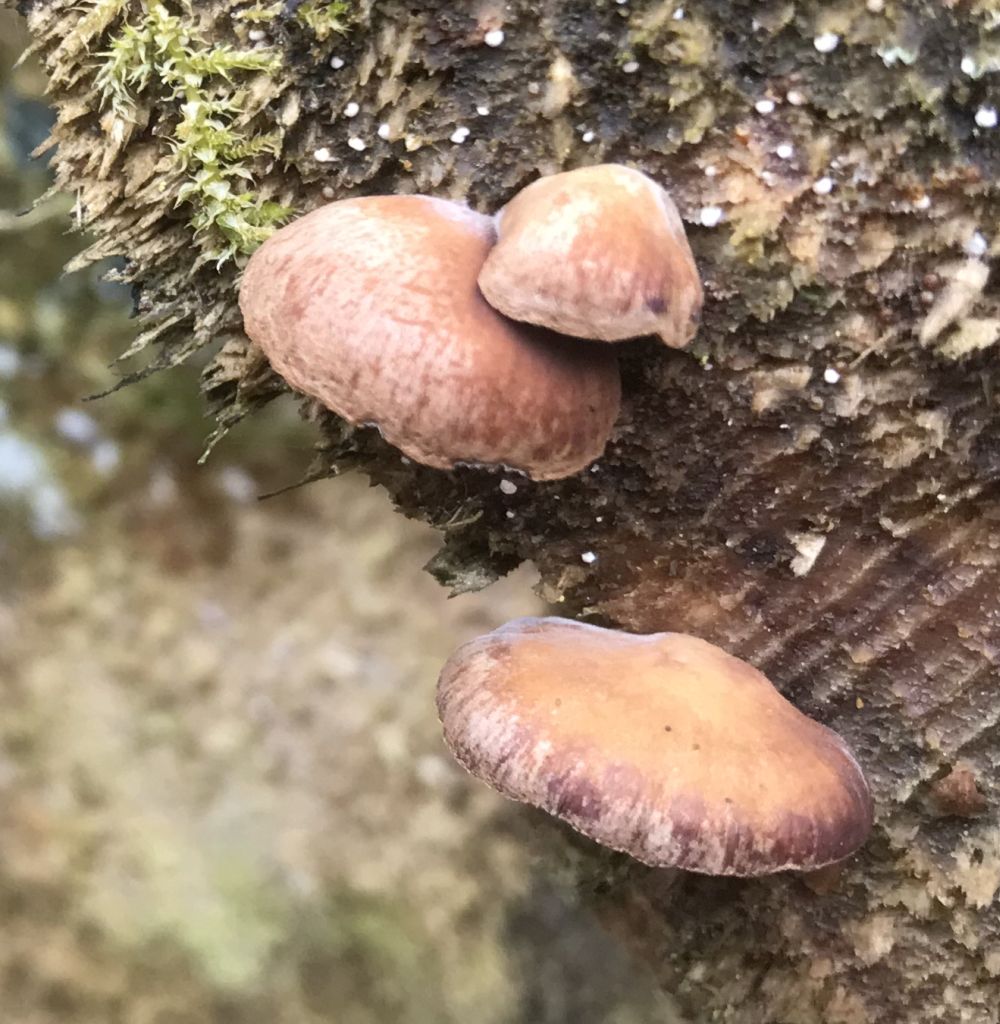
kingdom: Fungi
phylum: Basidiomycota
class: Agaricomycetes
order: Agaricales
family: Strophariaceae
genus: Deconica
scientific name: Deconica horizontalis
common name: ved-stråhat
